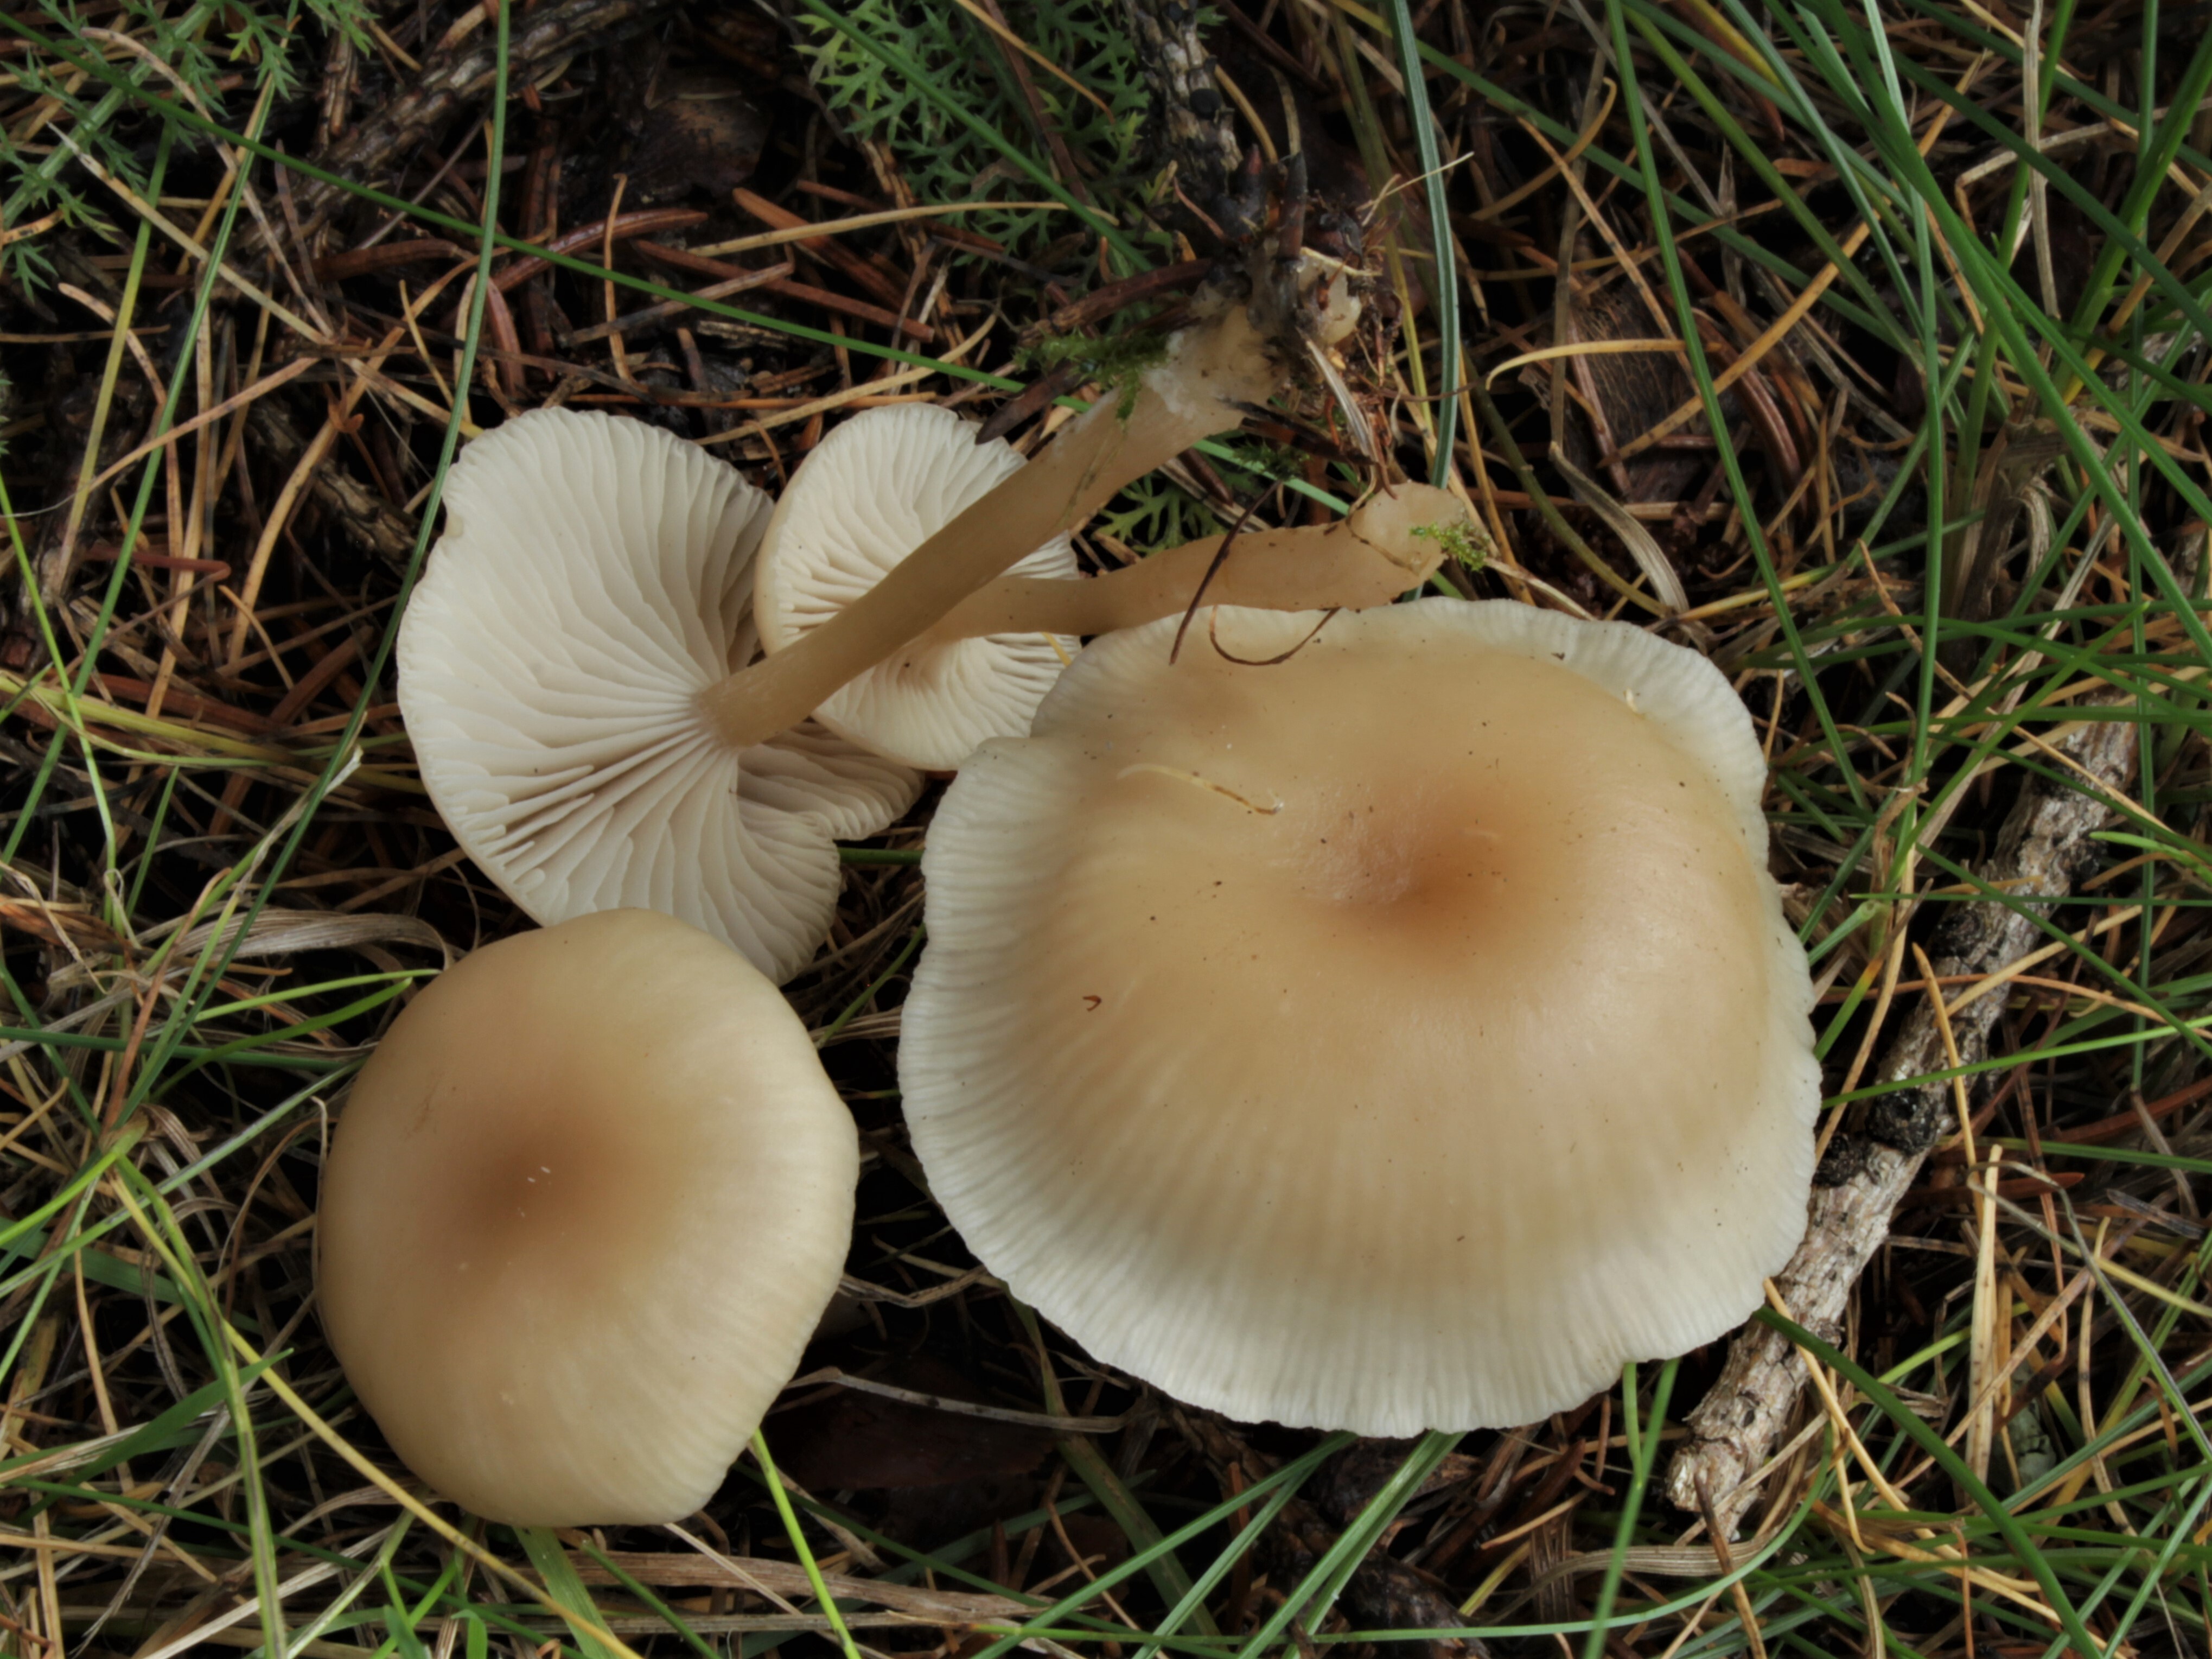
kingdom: Fungi
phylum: Basidiomycota
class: Agaricomycetes
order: Agaricales
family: Tricholomataceae
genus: Clitocybe
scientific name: Clitocybe fragrans
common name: Fragrant funnel
